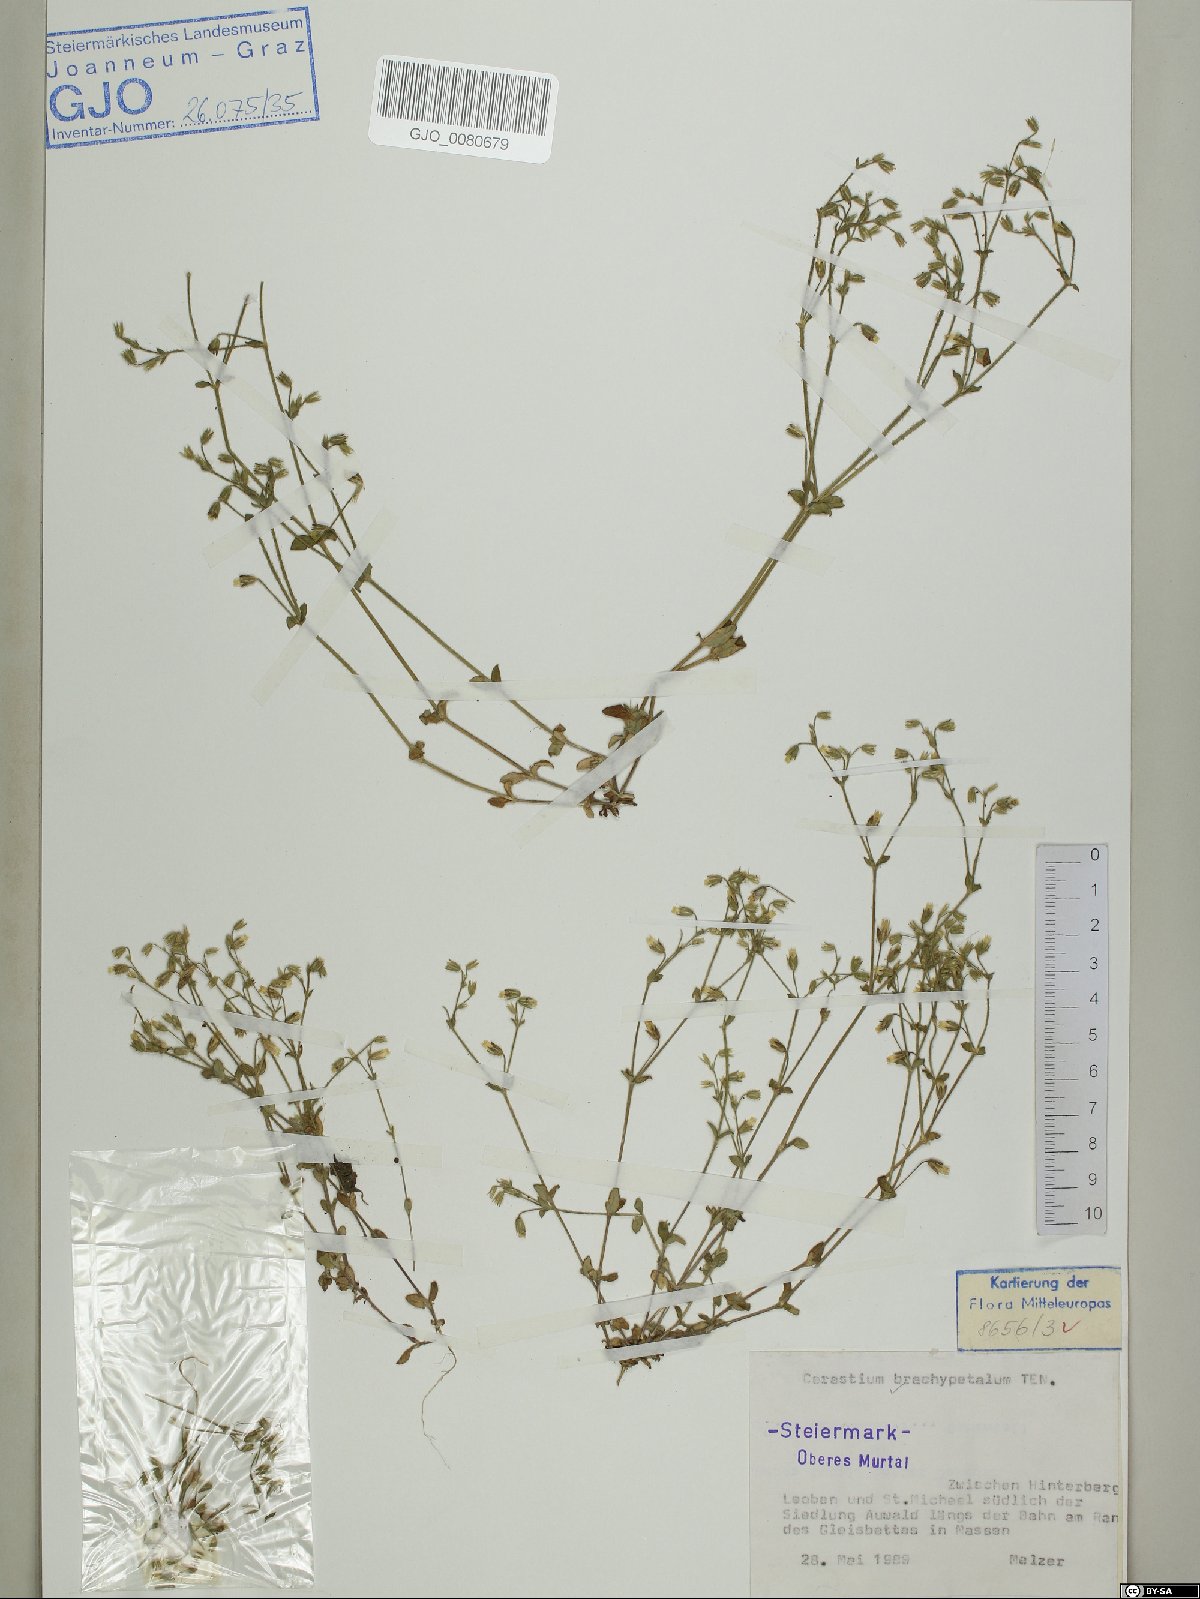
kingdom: Plantae
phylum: Tracheophyta
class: Magnoliopsida
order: Caryophyllales
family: Caryophyllaceae
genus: Cerastium
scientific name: Cerastium brachypetalum
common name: Grey mouse-ear
